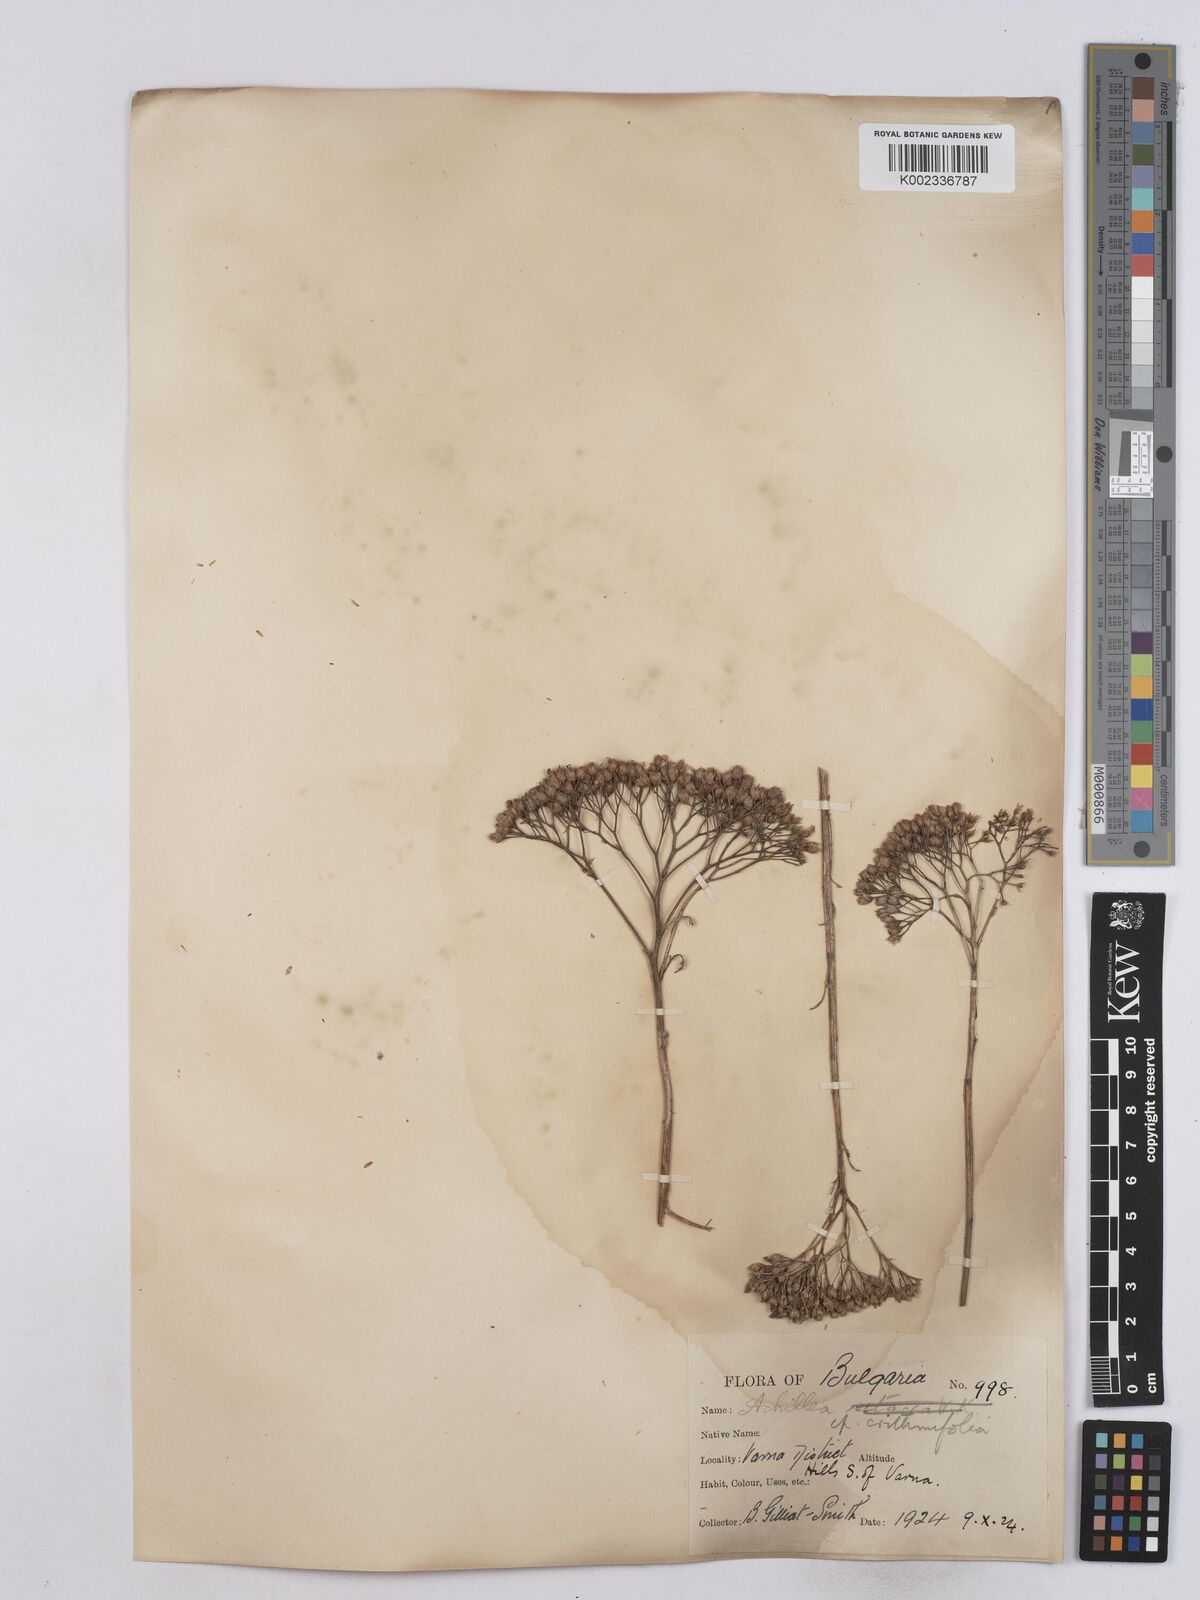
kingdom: Plantae
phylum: Tracheophyta
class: Magnoliopsida
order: Asterales
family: Asteraceae
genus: Achillea
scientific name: Achillea crithmifolia
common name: Yarrow
